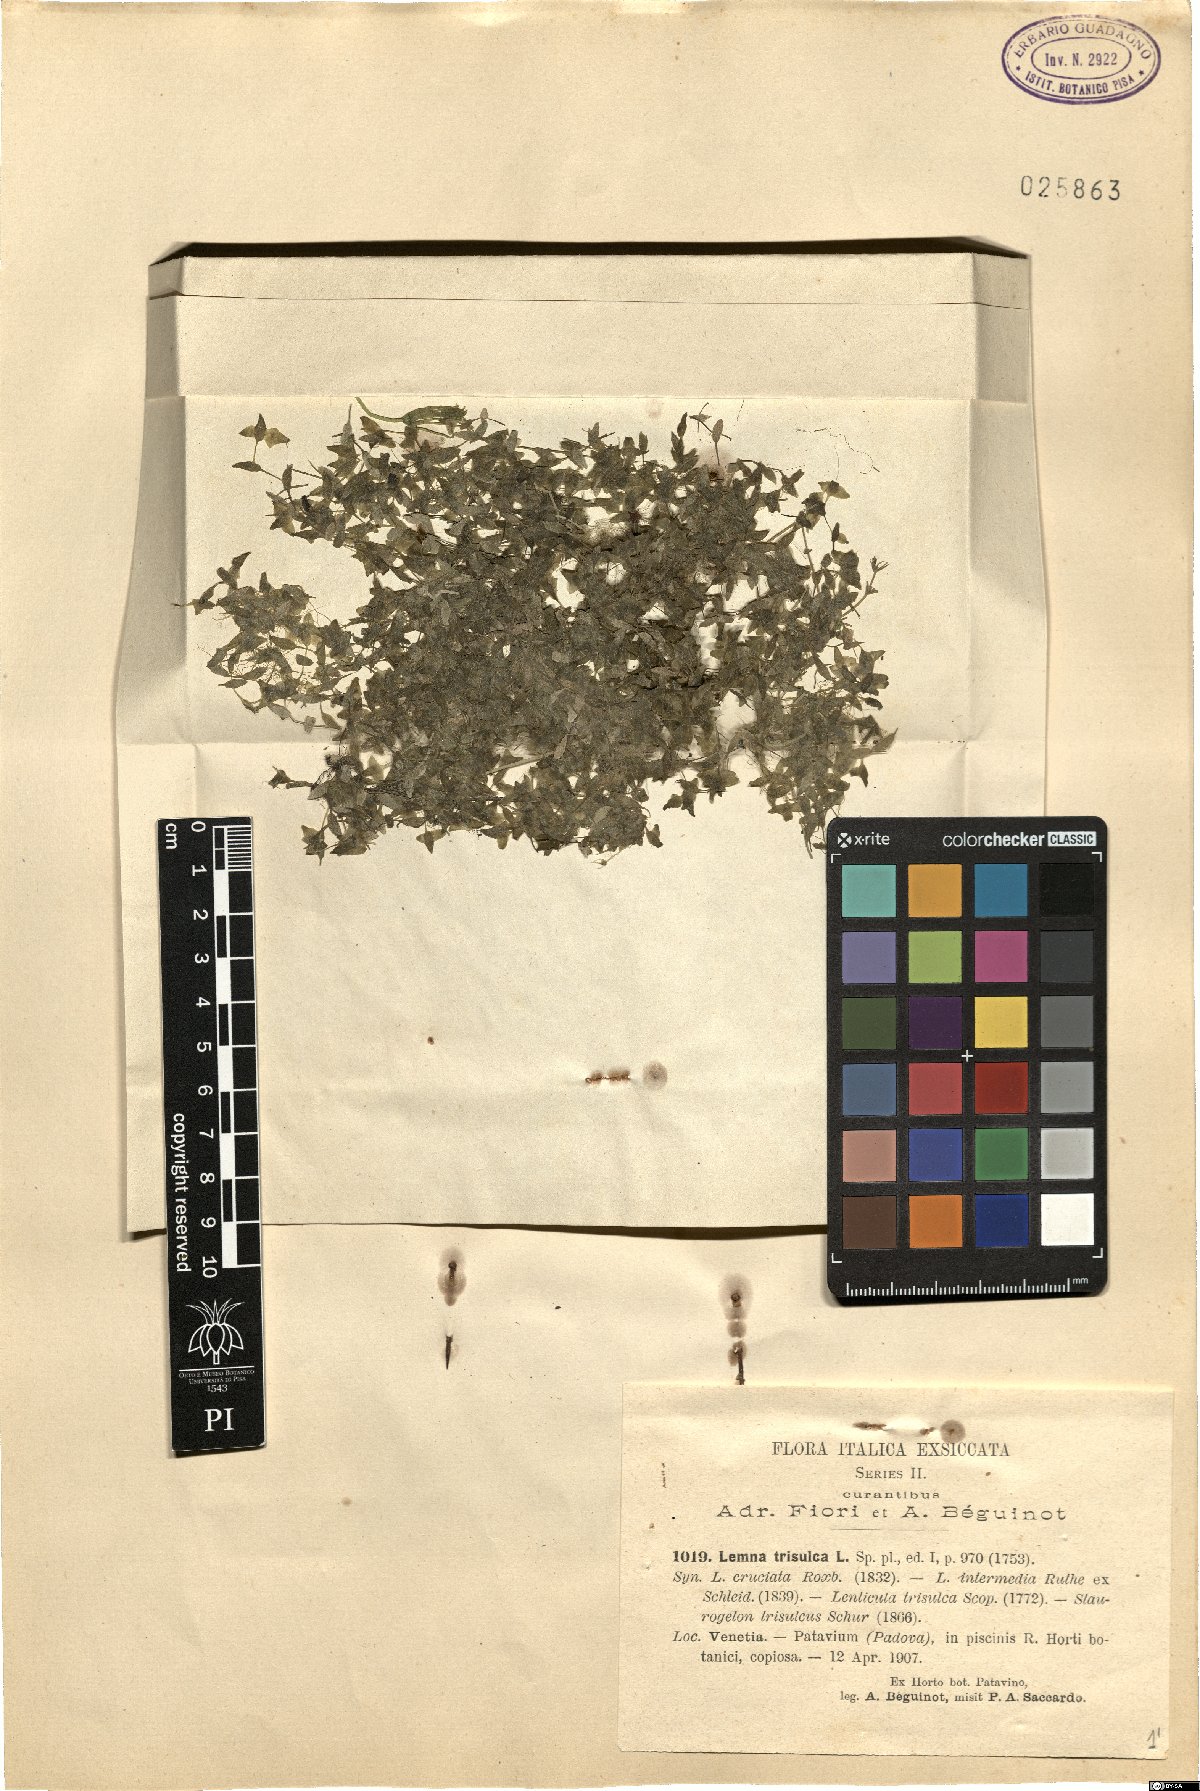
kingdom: Plantae
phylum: Tracheophyta
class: Liliopsida
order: Alismatales
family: Araceae
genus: Lemna
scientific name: Lemna trisulca
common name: Ivy-leaved duckweed
